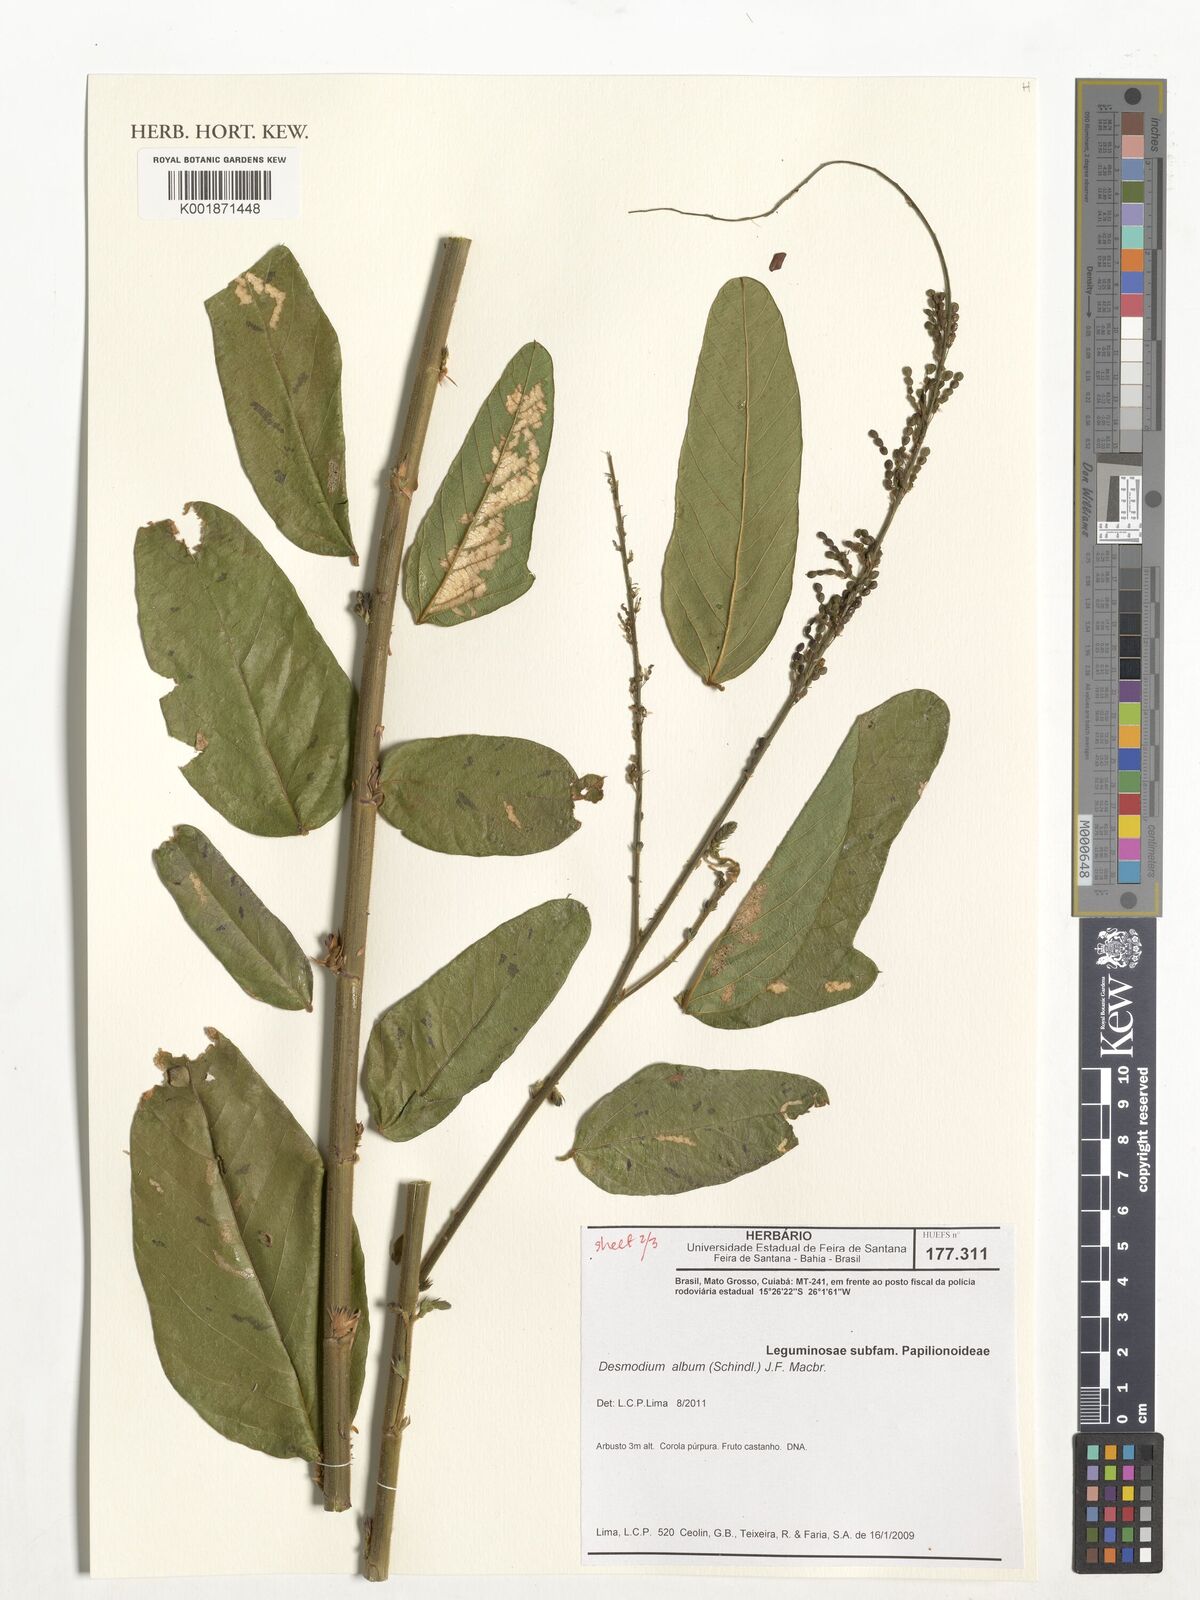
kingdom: Plantae
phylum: Tracheophyta
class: Magnoliopsida
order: Fabales
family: Fabaceae
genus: Desmodium
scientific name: Desmodium album
